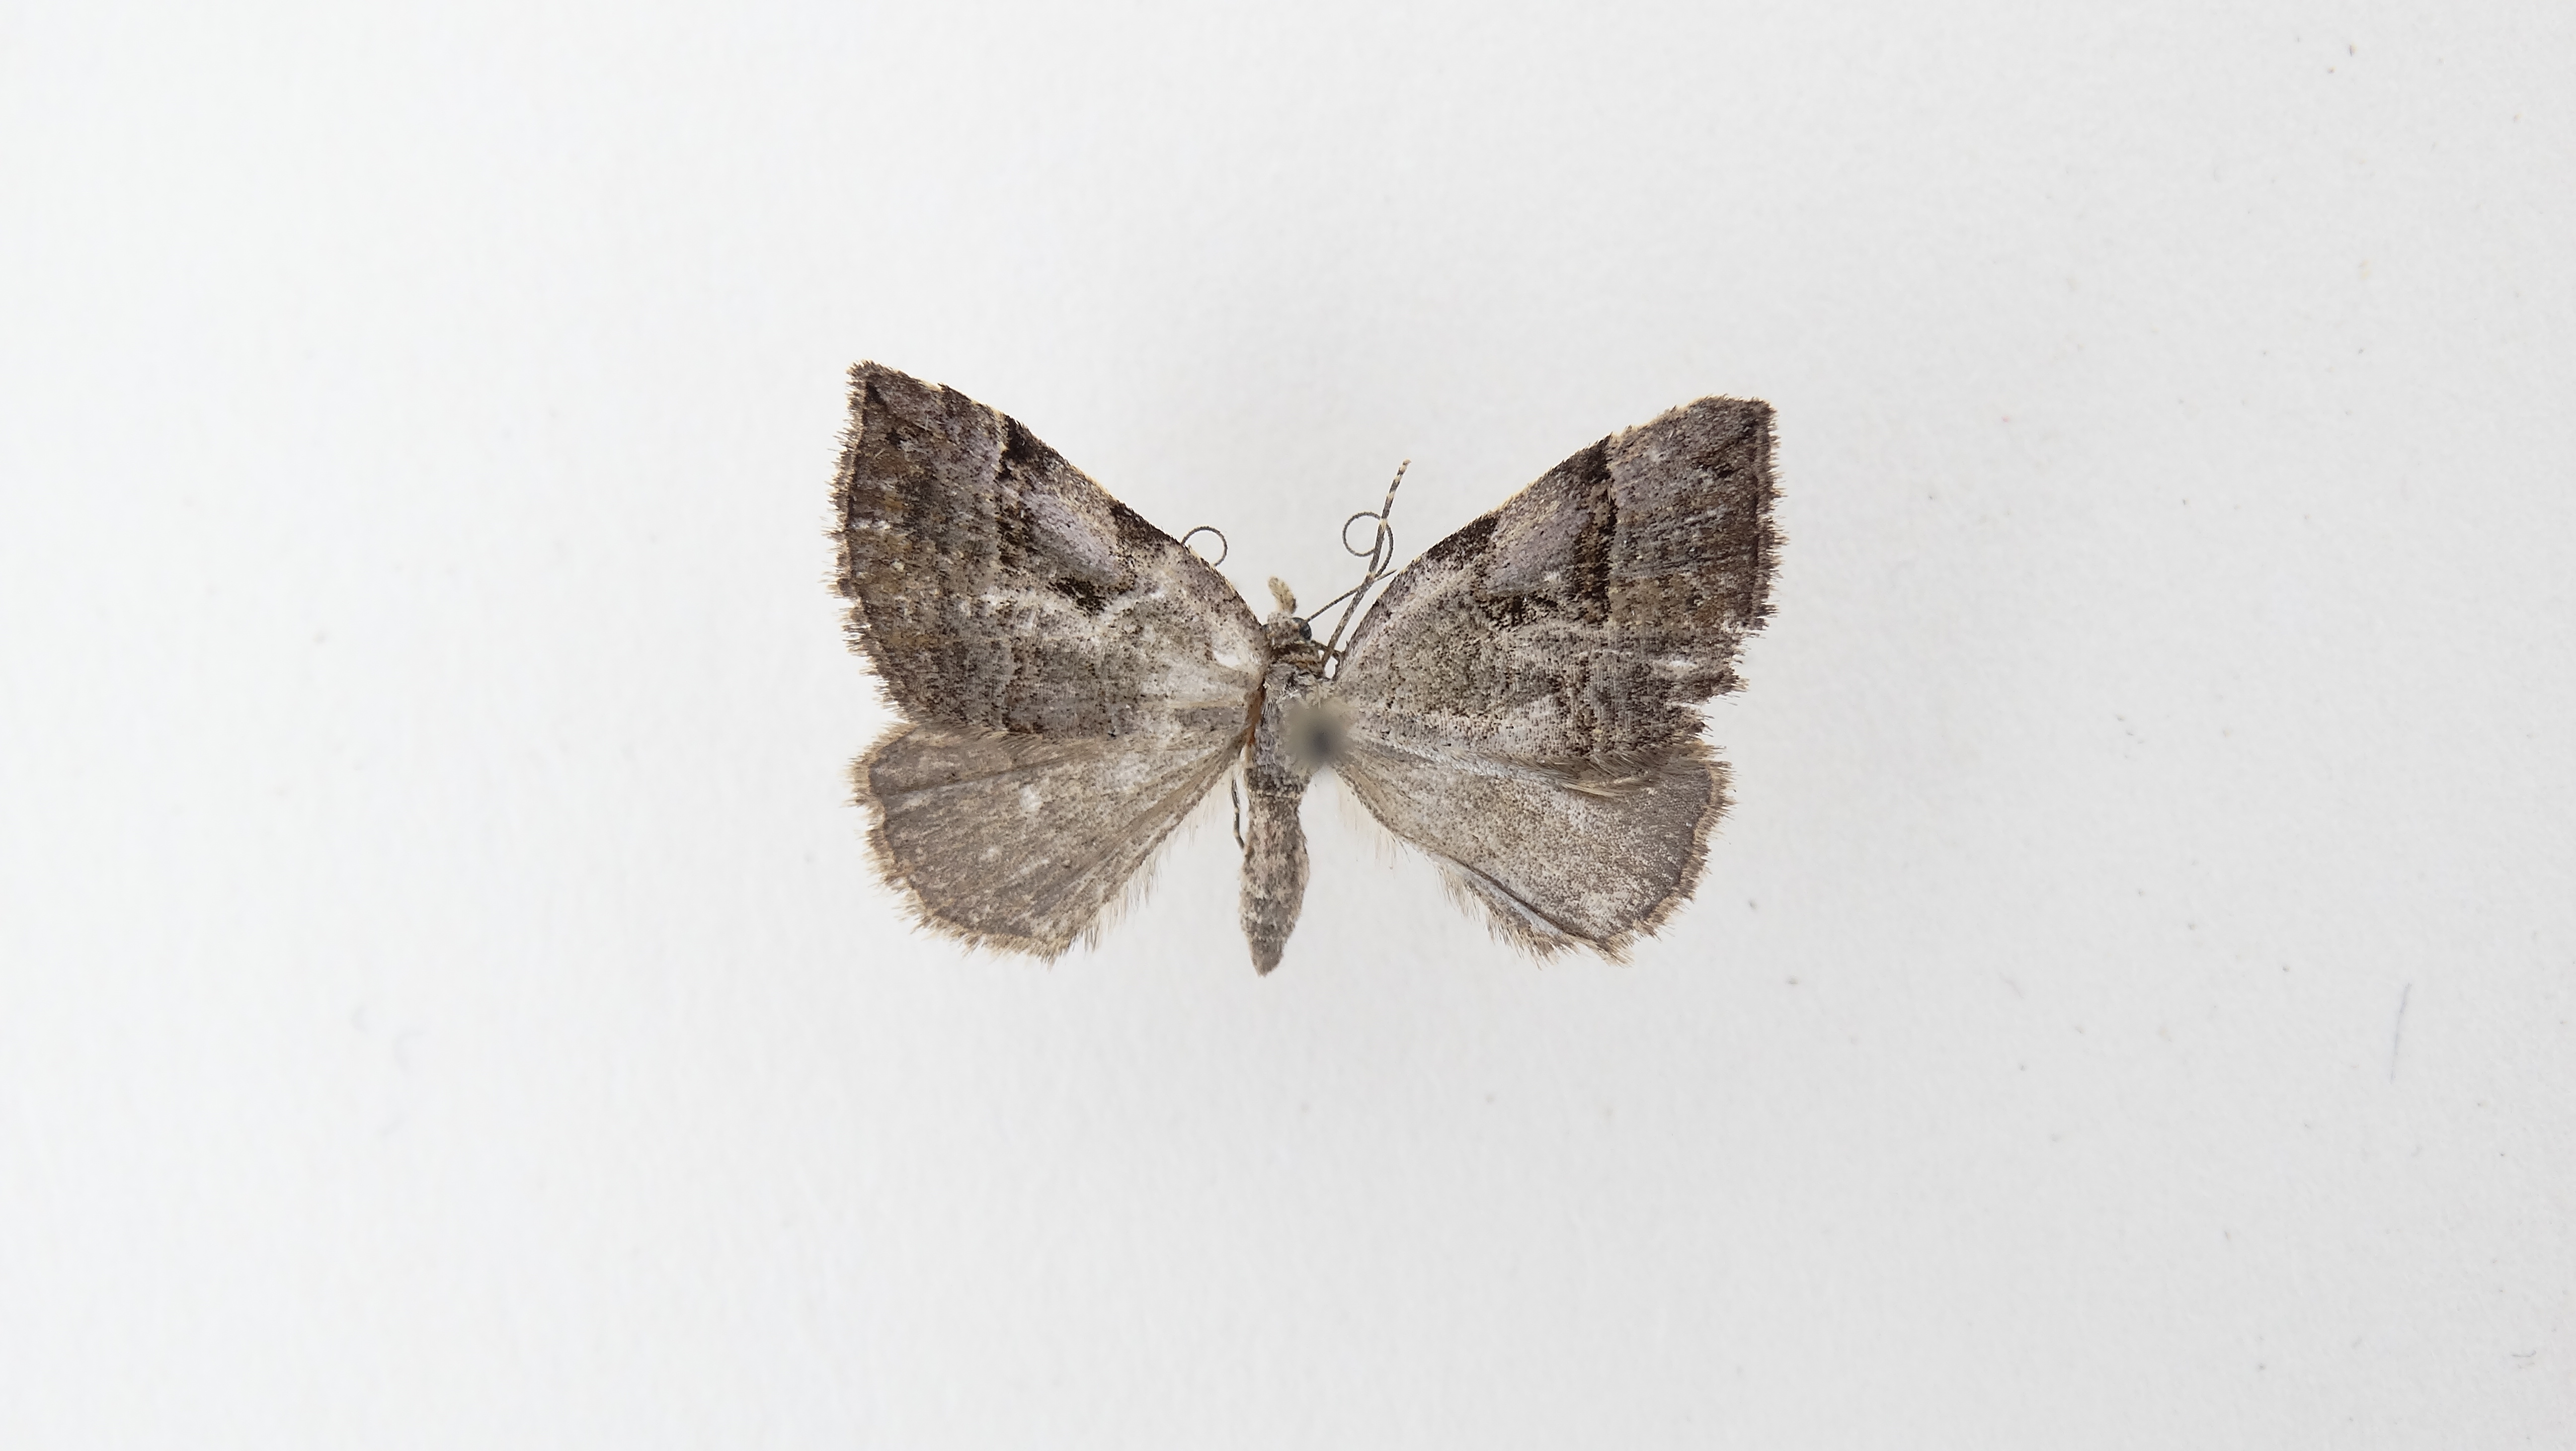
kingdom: Animalia
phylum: Arthropoda
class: Insecta
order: Lepidoptera
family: Geometridae
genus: Nebula
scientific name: Nebula decipiens
